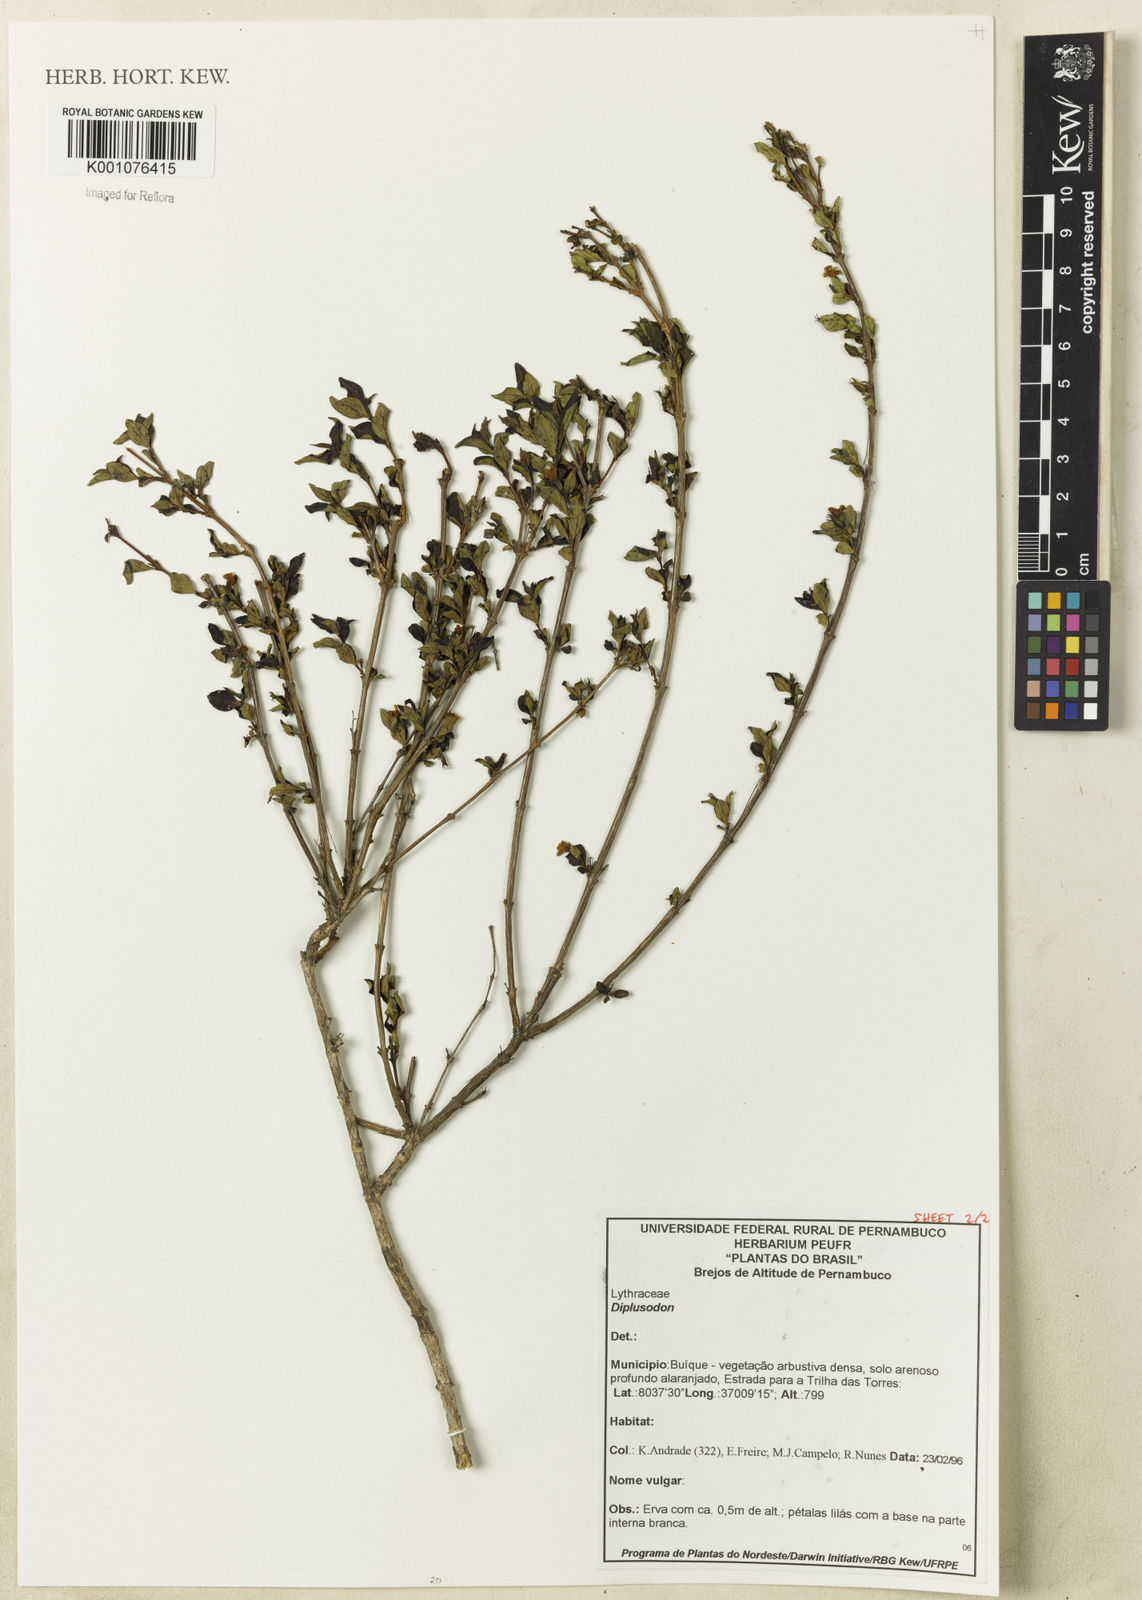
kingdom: Plantae
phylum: Tracheophyta
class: Magnoliopsida
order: Myrtales
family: Lythraceae
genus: Diplusodon
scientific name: Diplusodon
